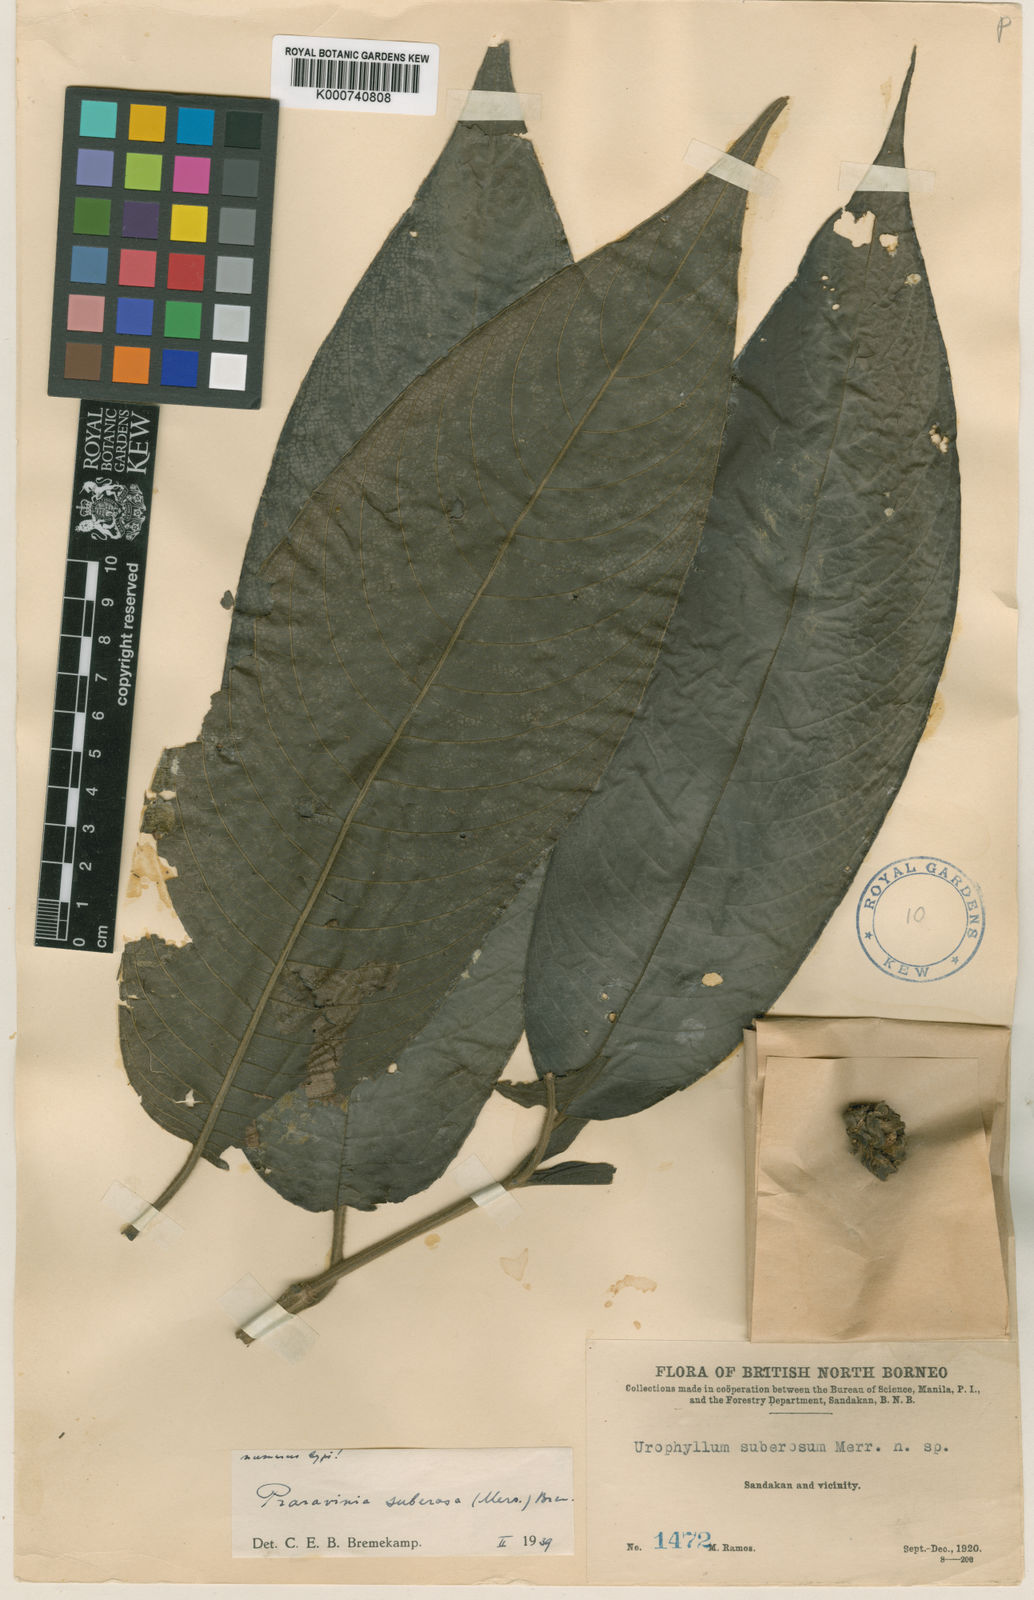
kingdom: Plantae
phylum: Tracheophyta
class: Magnoliopsida
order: Gentianales
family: Rubiaceae
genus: Praravinia
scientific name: Praravinia suberosa
